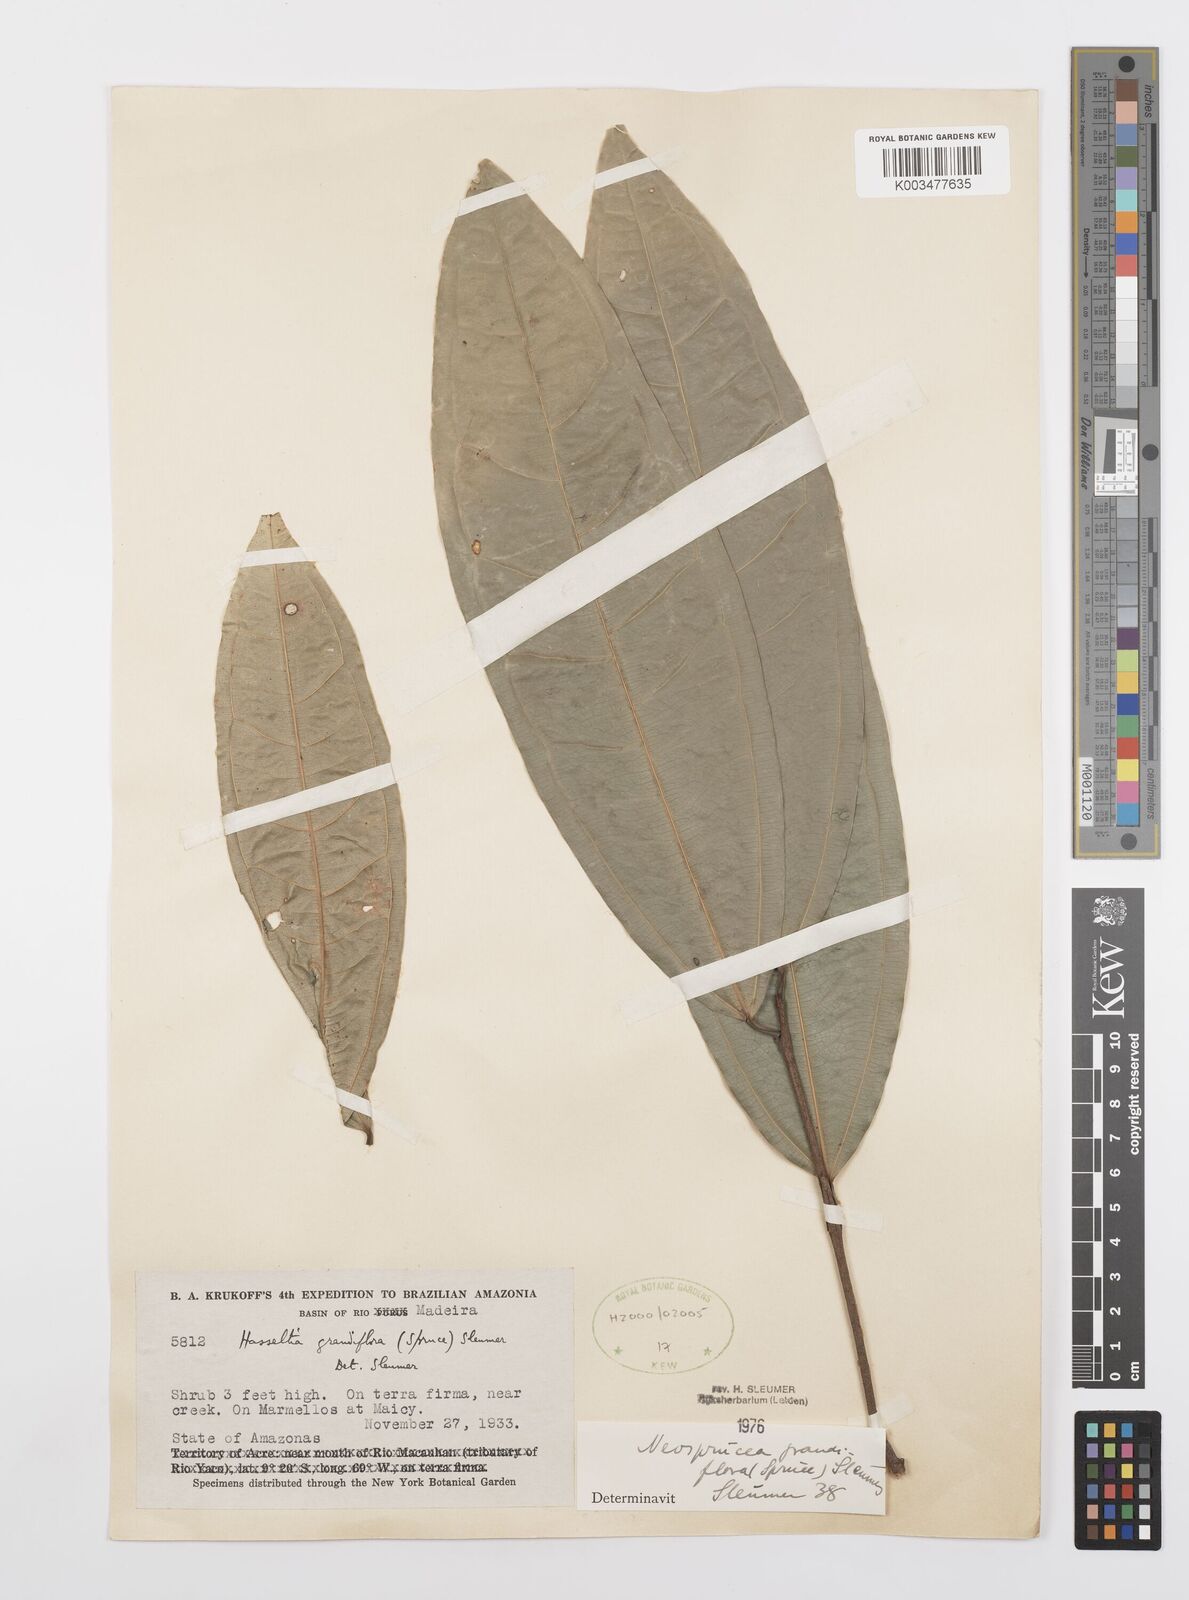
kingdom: Plantae
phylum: Tracheophyta
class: Magnoliopsida
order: Malpighiales
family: Salicaceae
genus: Neosprucea
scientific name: Neosprucea grandiflora
